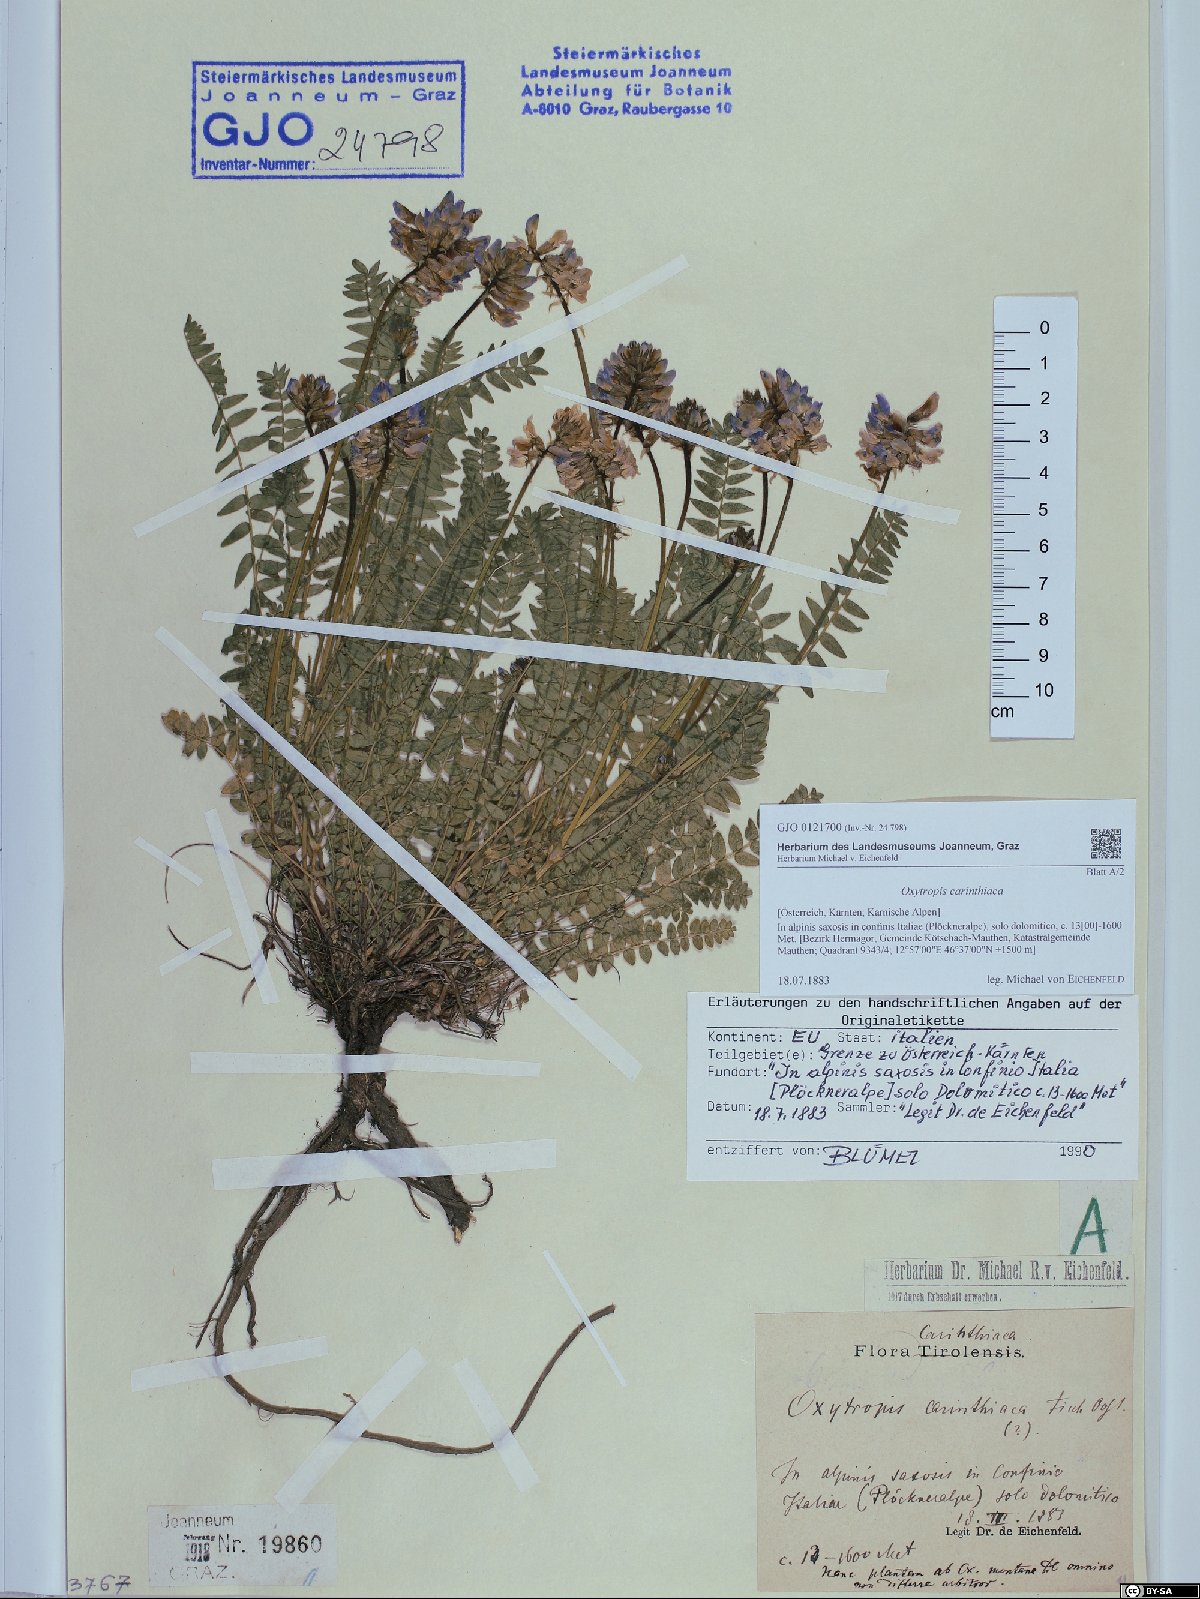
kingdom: Plantae
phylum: Tracheophyta
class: Magnoliopsida
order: Fabales
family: Fabaceae
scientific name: Fabaceae
